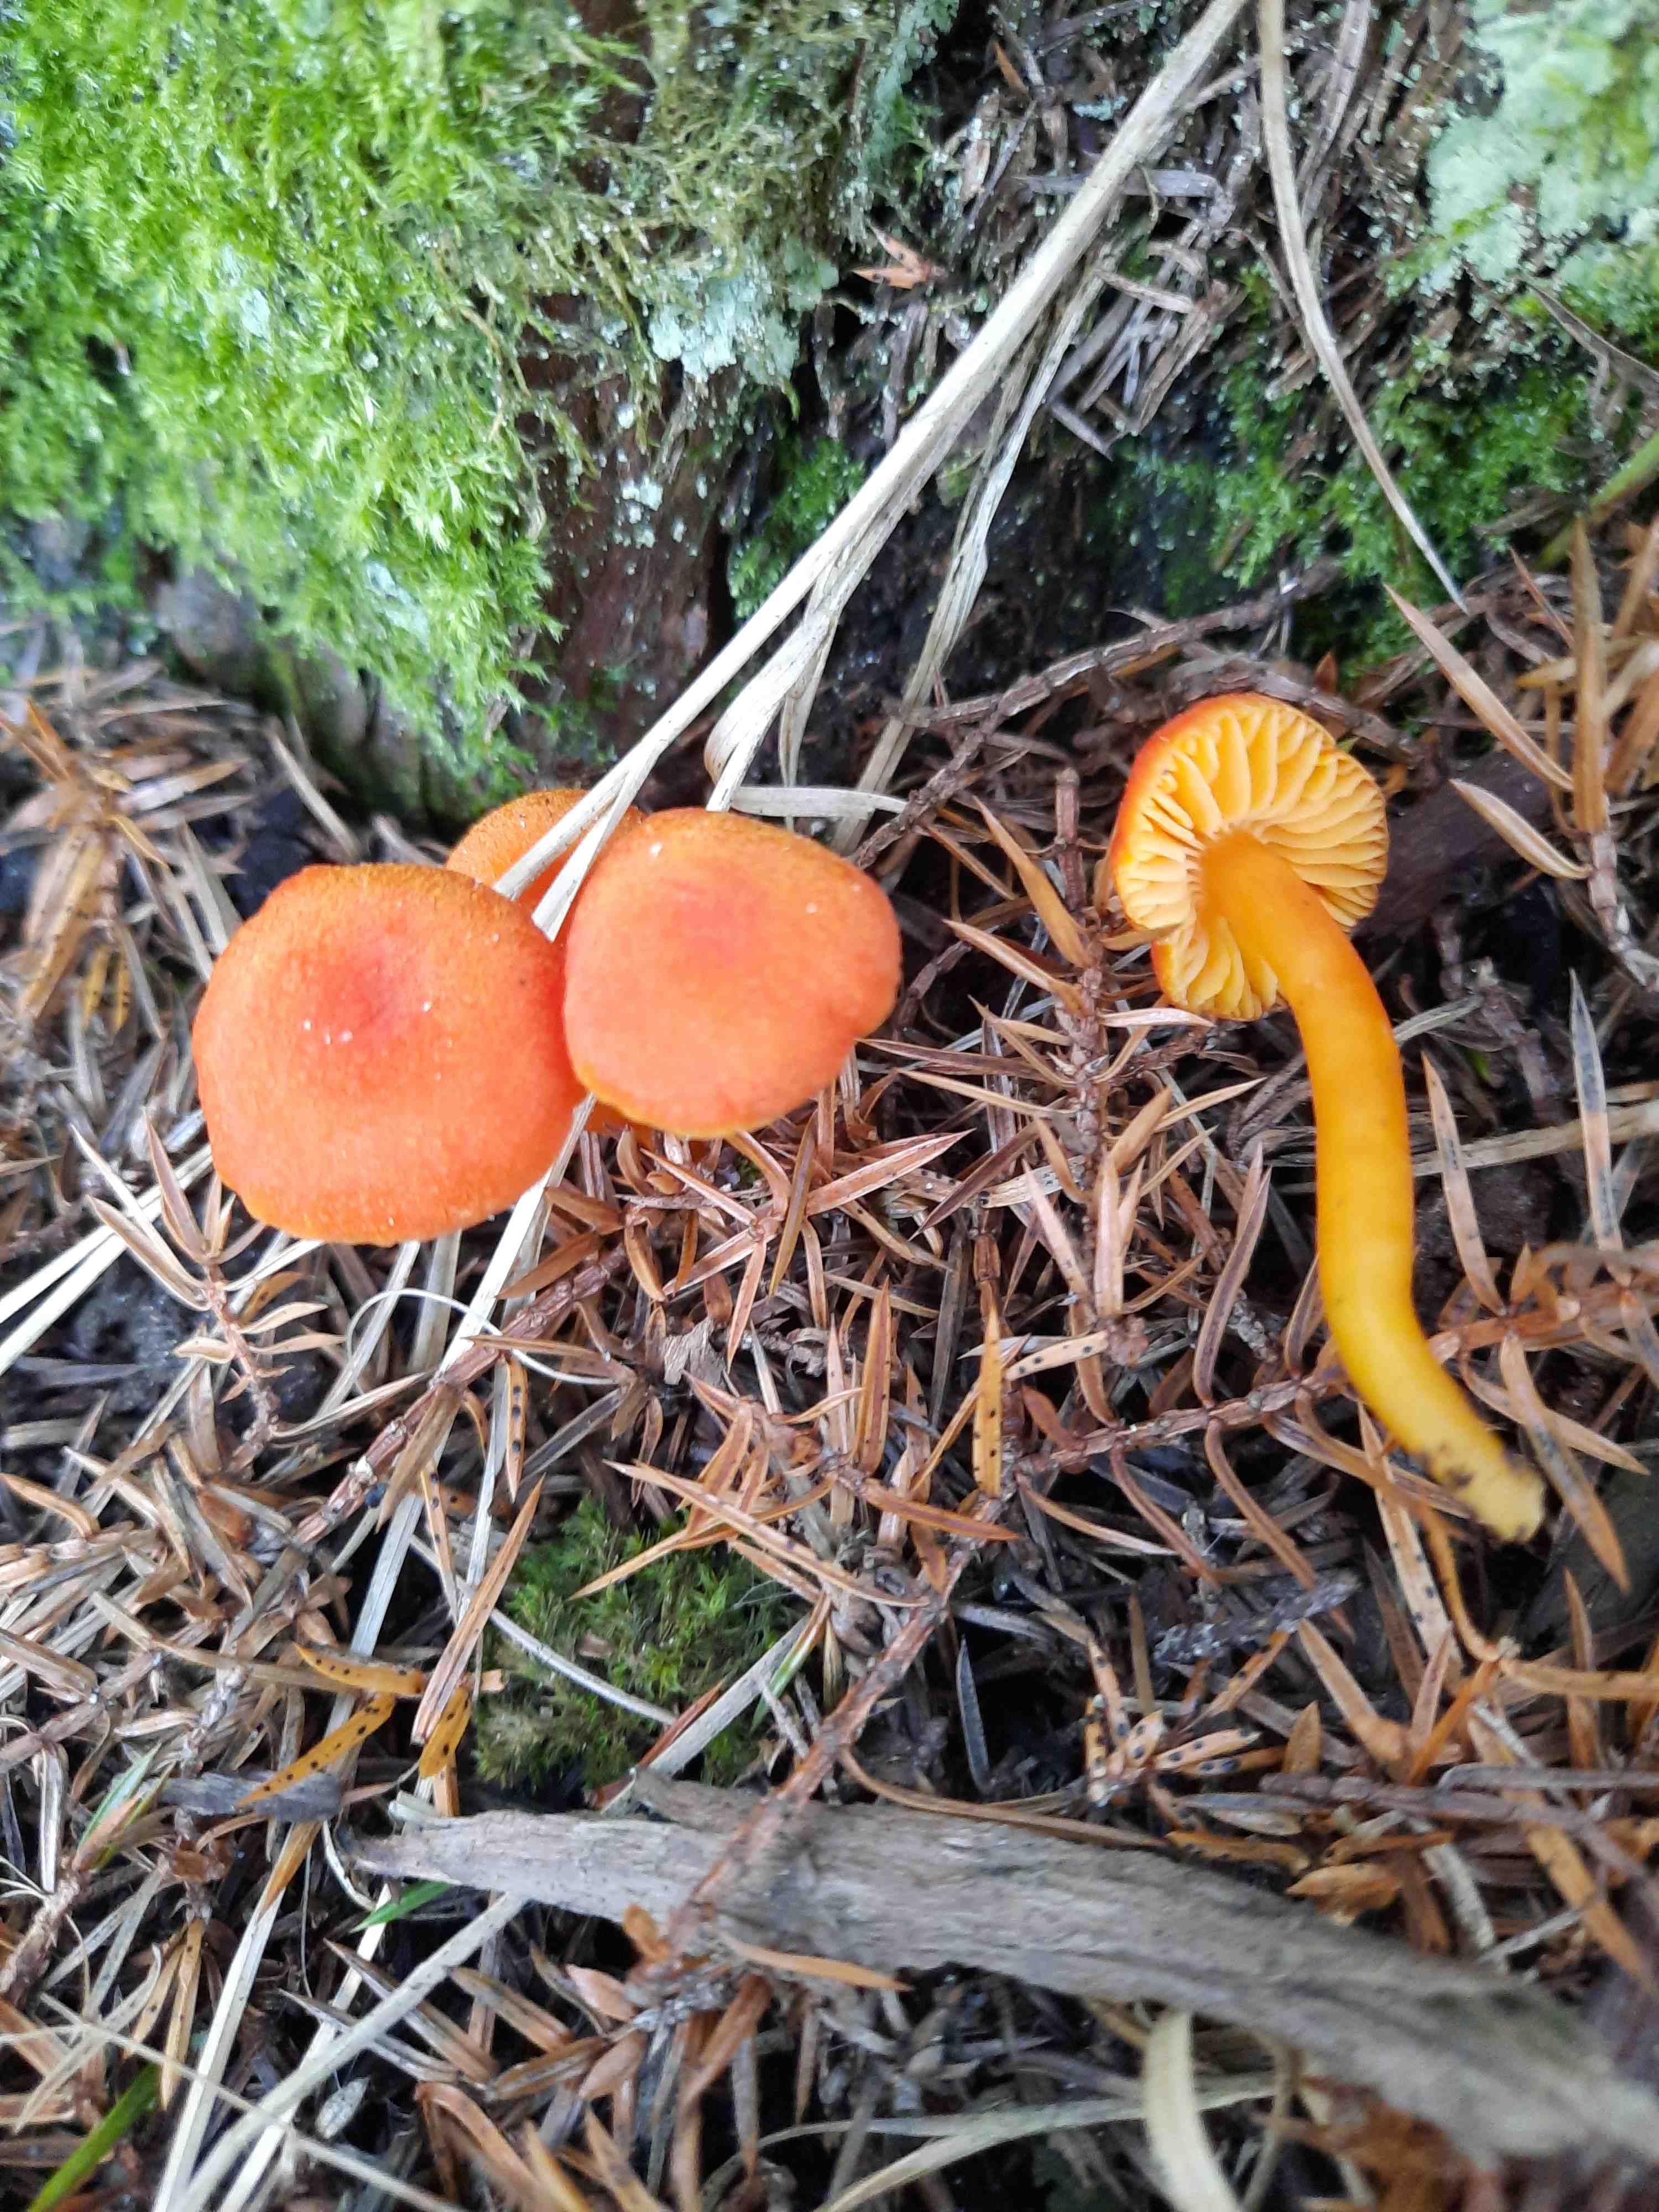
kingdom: Fungi
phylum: Basidiomycota
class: Agaricomycetes
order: Agaricales
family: Hygrophoraceae
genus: Hygrocybe
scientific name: Hygrocybe miniata
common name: mønje-vokshat
